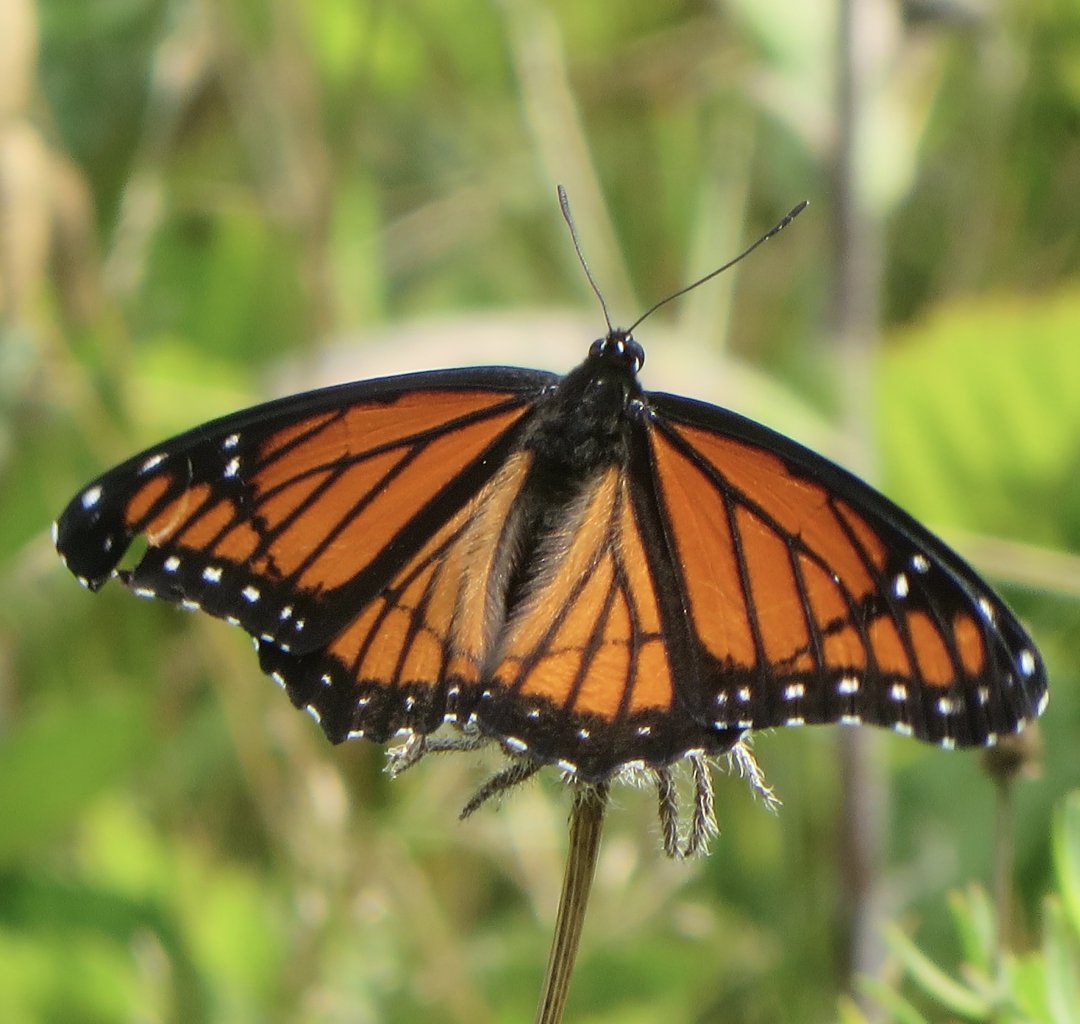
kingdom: Animalia
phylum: Arthropoda
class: Insecta
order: Lepidoptera
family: Nymphalidae
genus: Limenitis
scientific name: Limenitis archippus
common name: Viceroy
